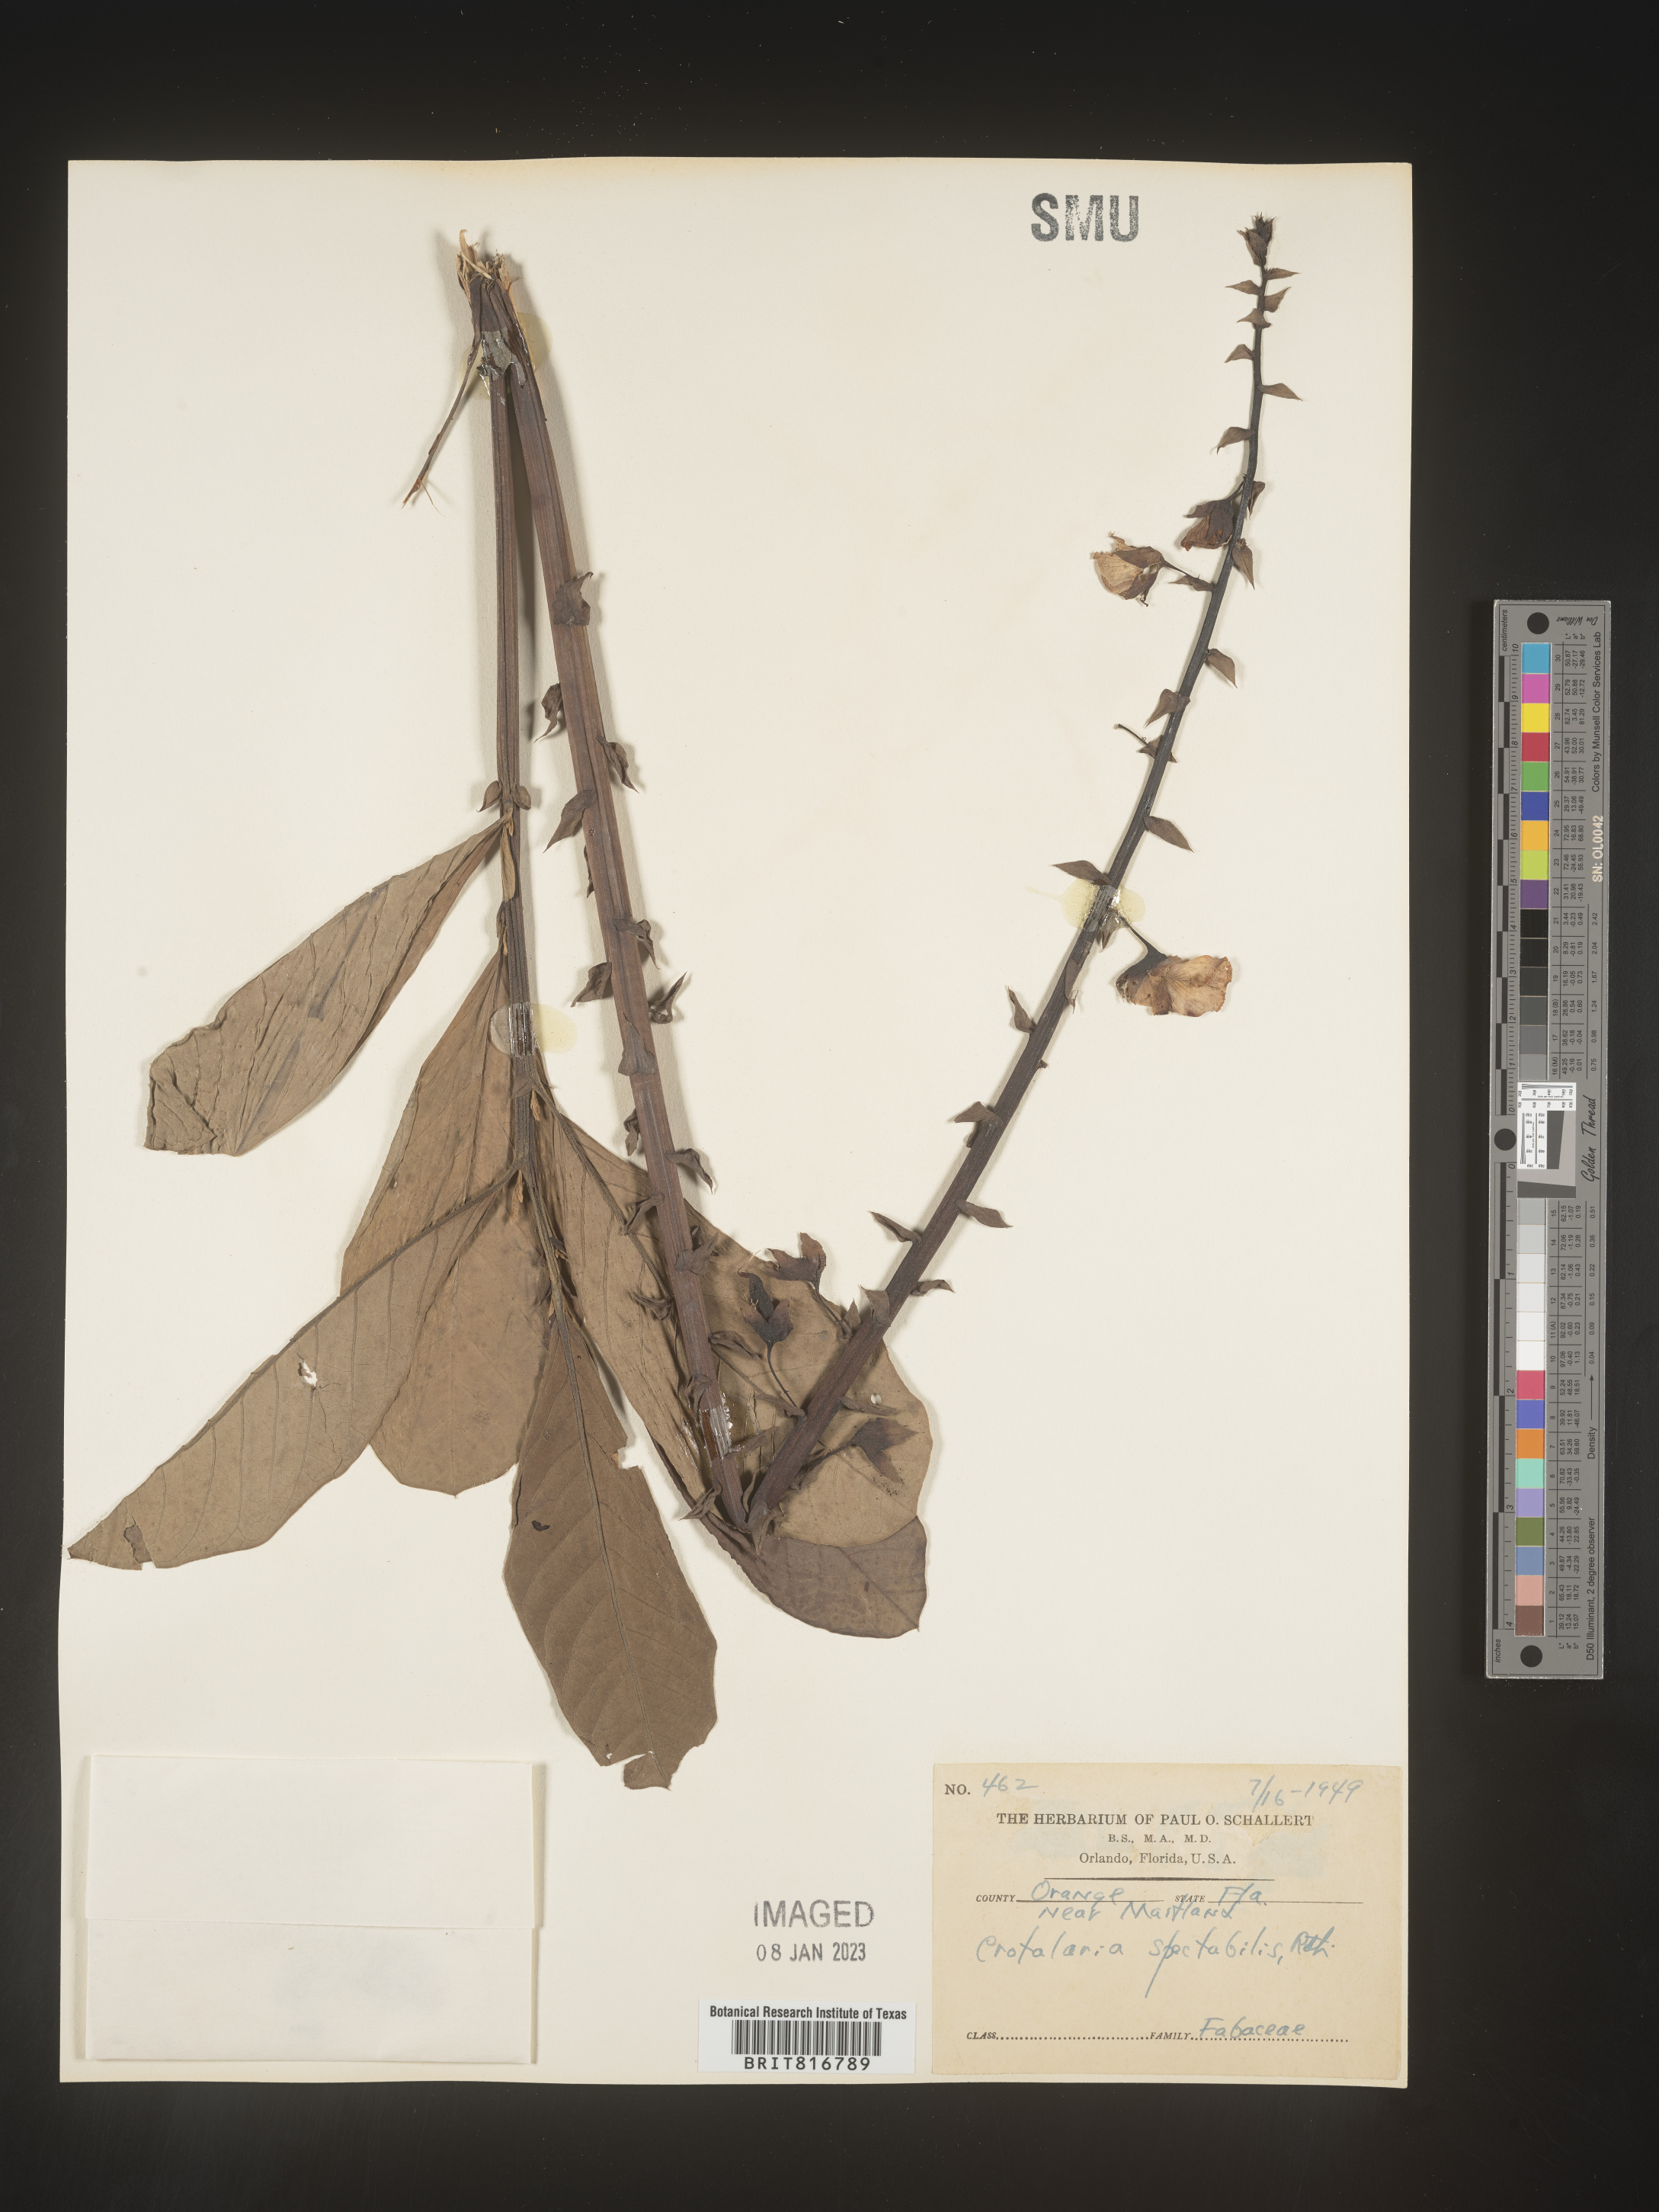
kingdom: Plantae
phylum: Tracheophyta
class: Magnoliopsida
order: Fabales
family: Fabaceae
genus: Crotalaria
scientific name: Crotalaria spectabilis
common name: Showy rattlebox
